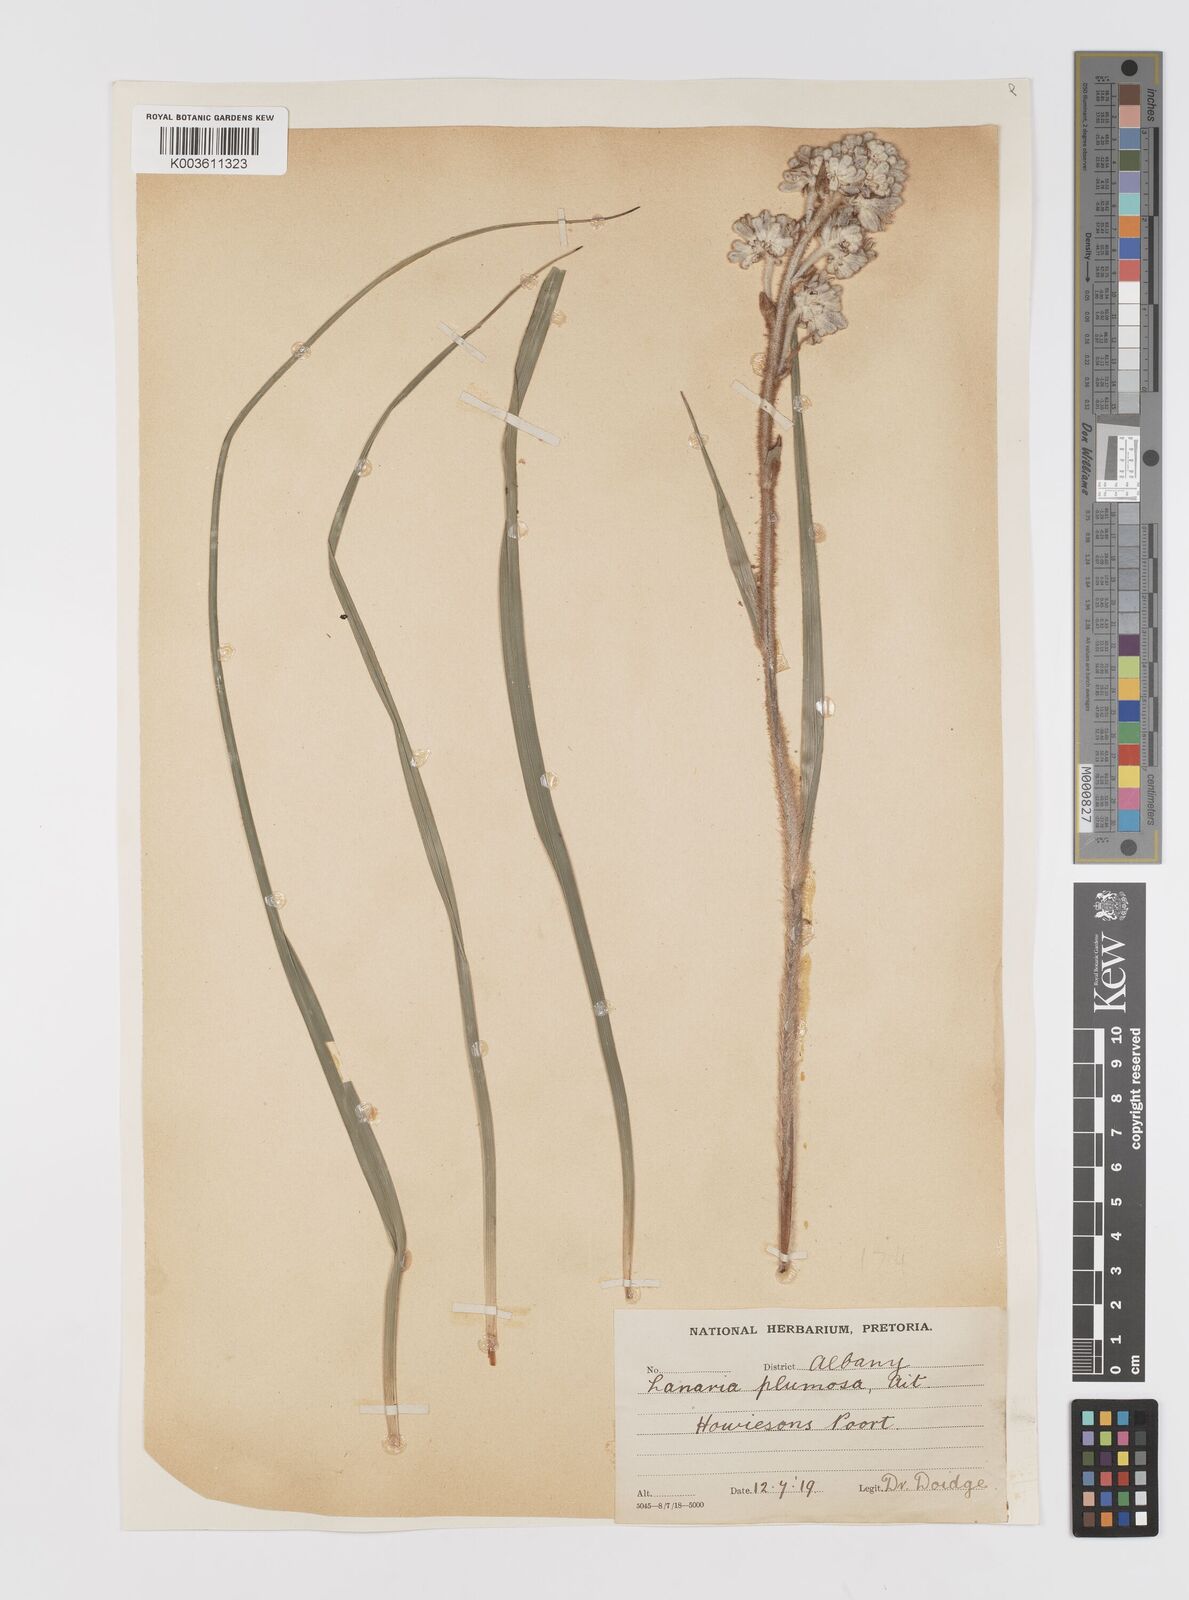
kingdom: Plantae
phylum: Tracheophyta
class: Liliopsida
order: Asparagales
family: Lanariaceae
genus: Lanaria
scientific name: Lanaria lanata
